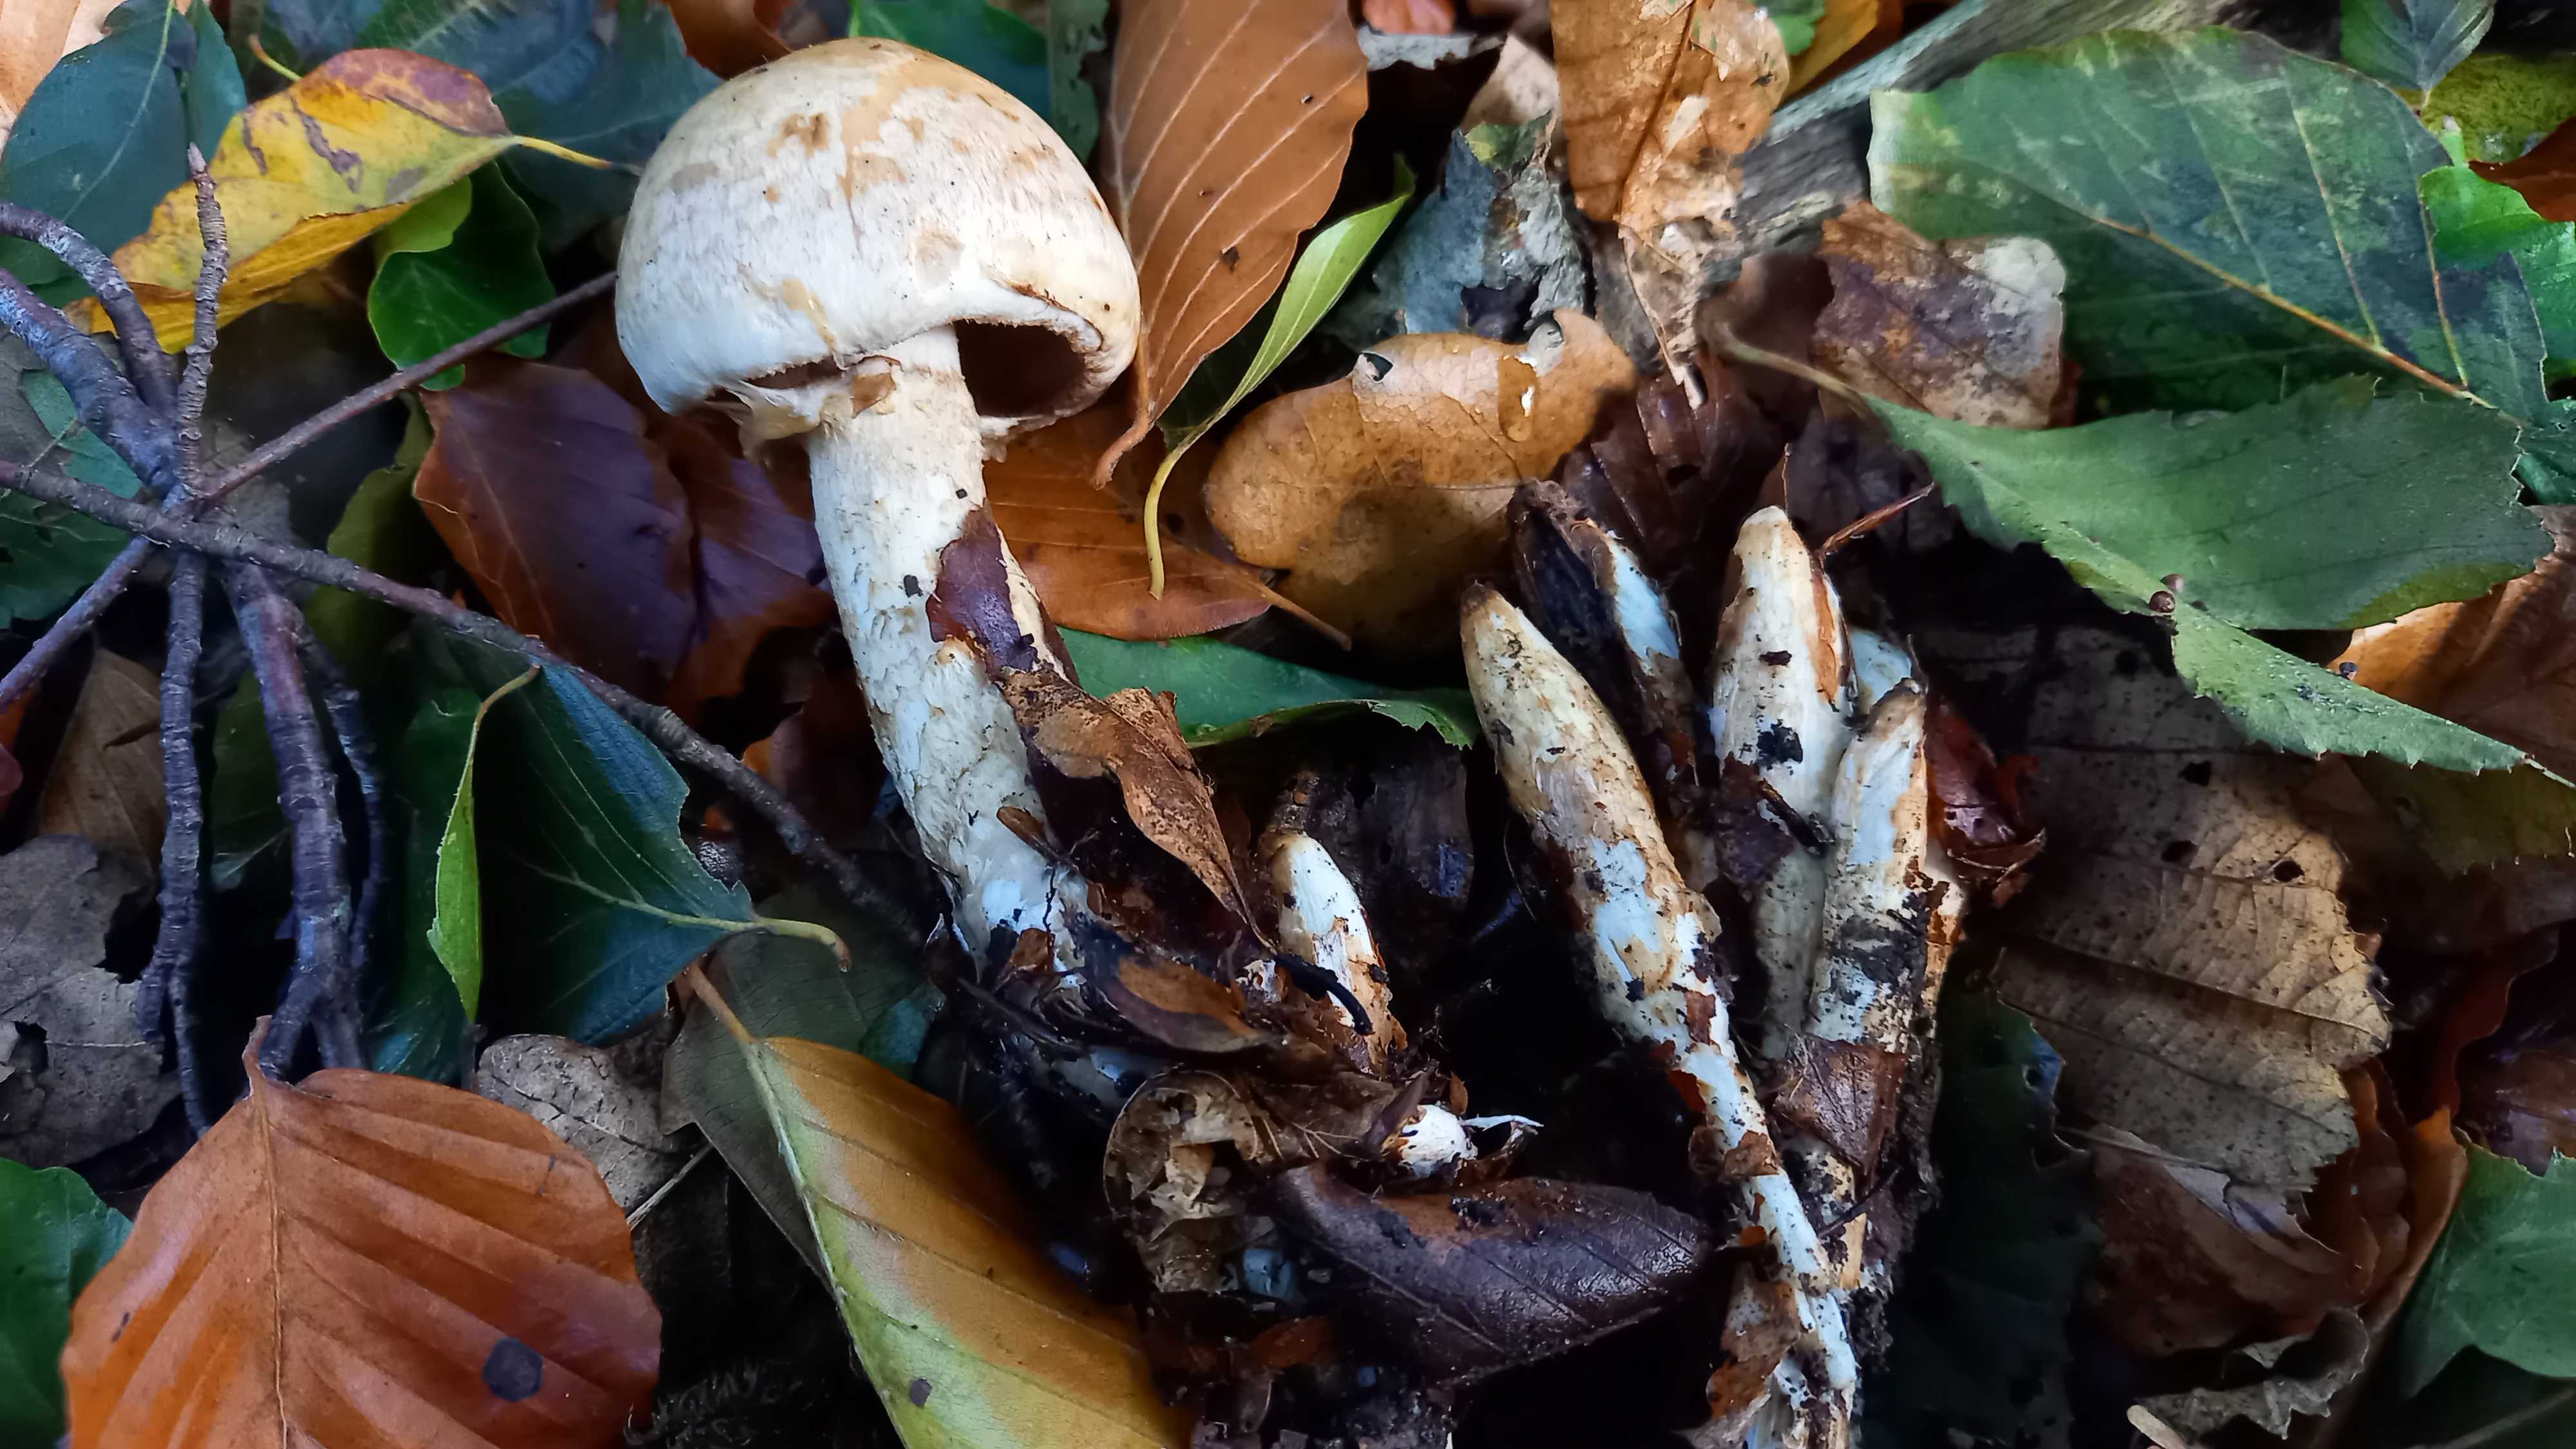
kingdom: Fungi
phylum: Basidiomycota
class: Agaricomycetes
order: Agaricales
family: Hymenogastraceae
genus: Hebeloma
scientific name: Hebeloma radicosum
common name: pælerods-tåreblad
